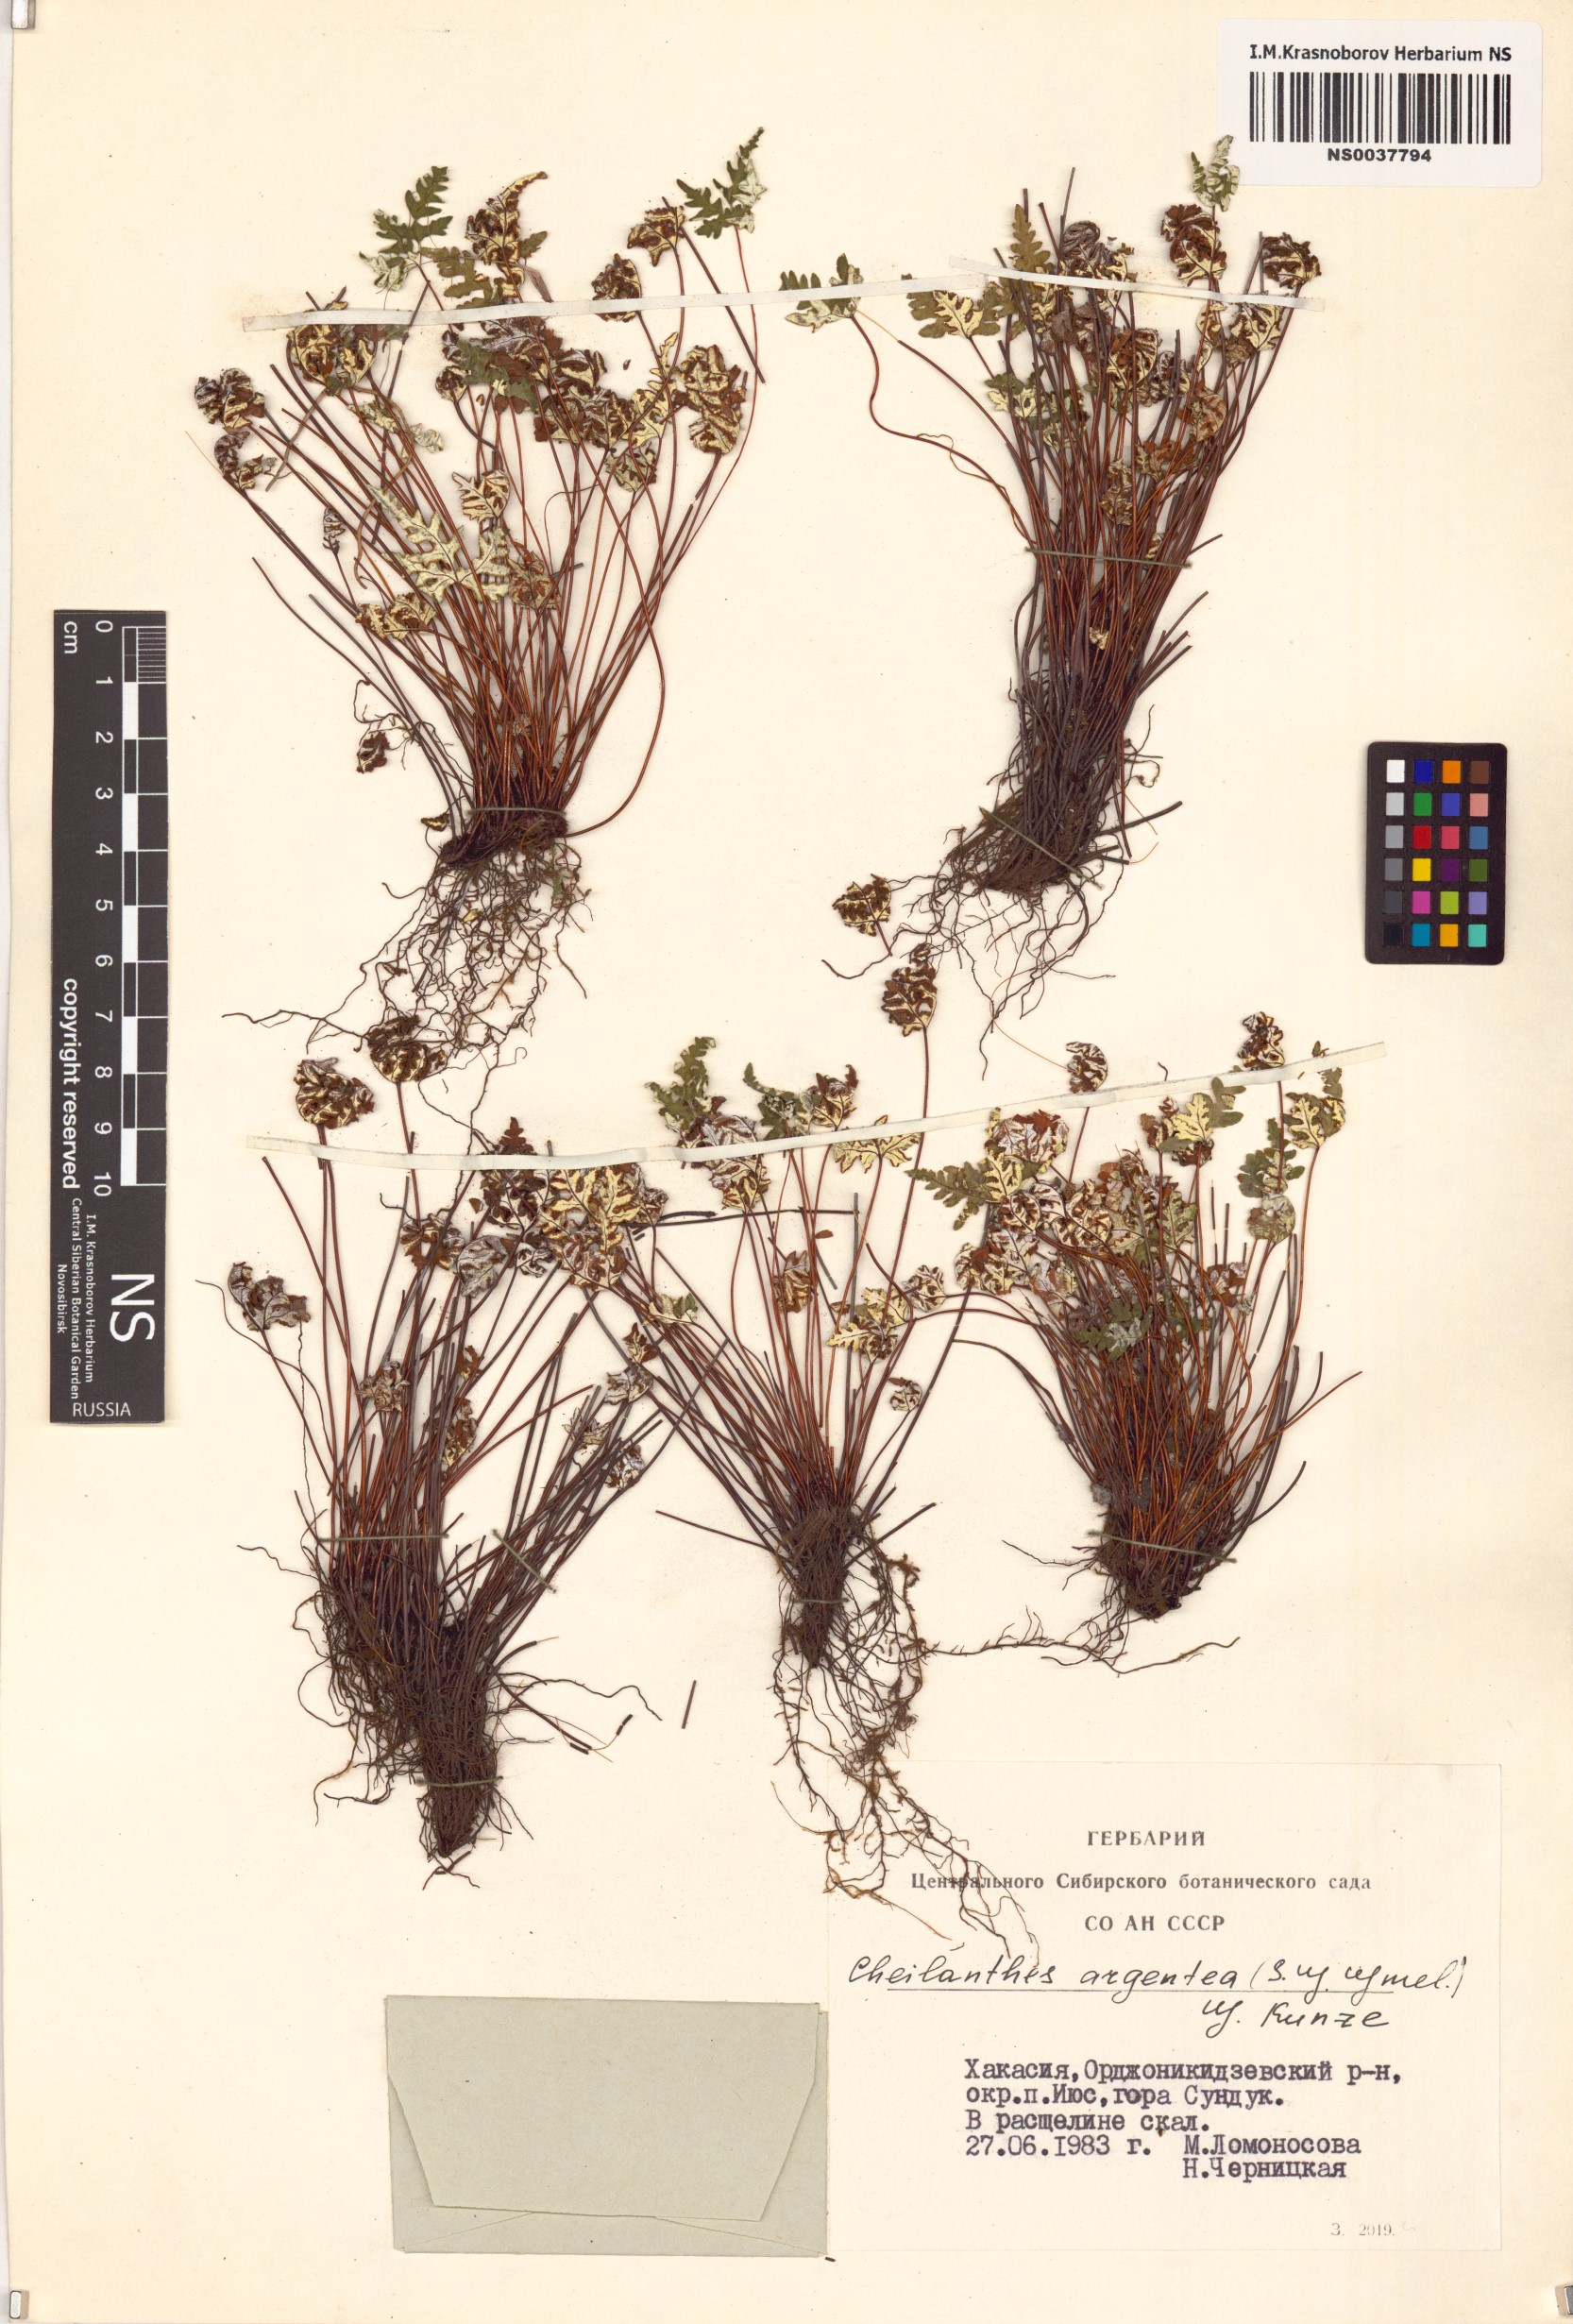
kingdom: Plantae
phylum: Tracheophyta
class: Polypodiopsida
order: Polypodiales
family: Pteridaceae
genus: Aleuritopteris
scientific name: Aleuritopteris argentea
